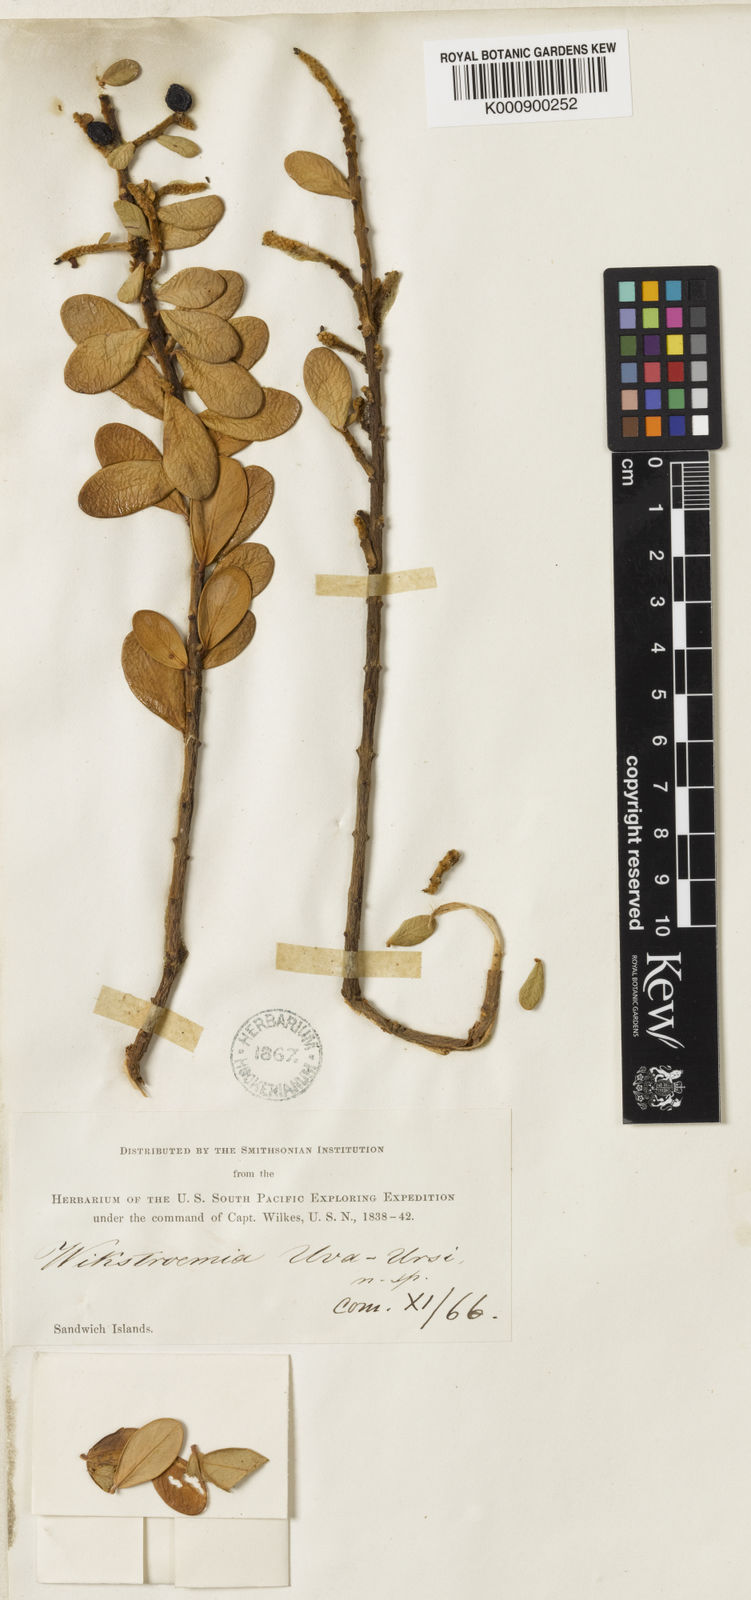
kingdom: Plantae
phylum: Tracheophyta
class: Magnoliopsida
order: Malvales
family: Thymelaeaceae
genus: Wikstroemia
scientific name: Wikstroemia uva-ursi
